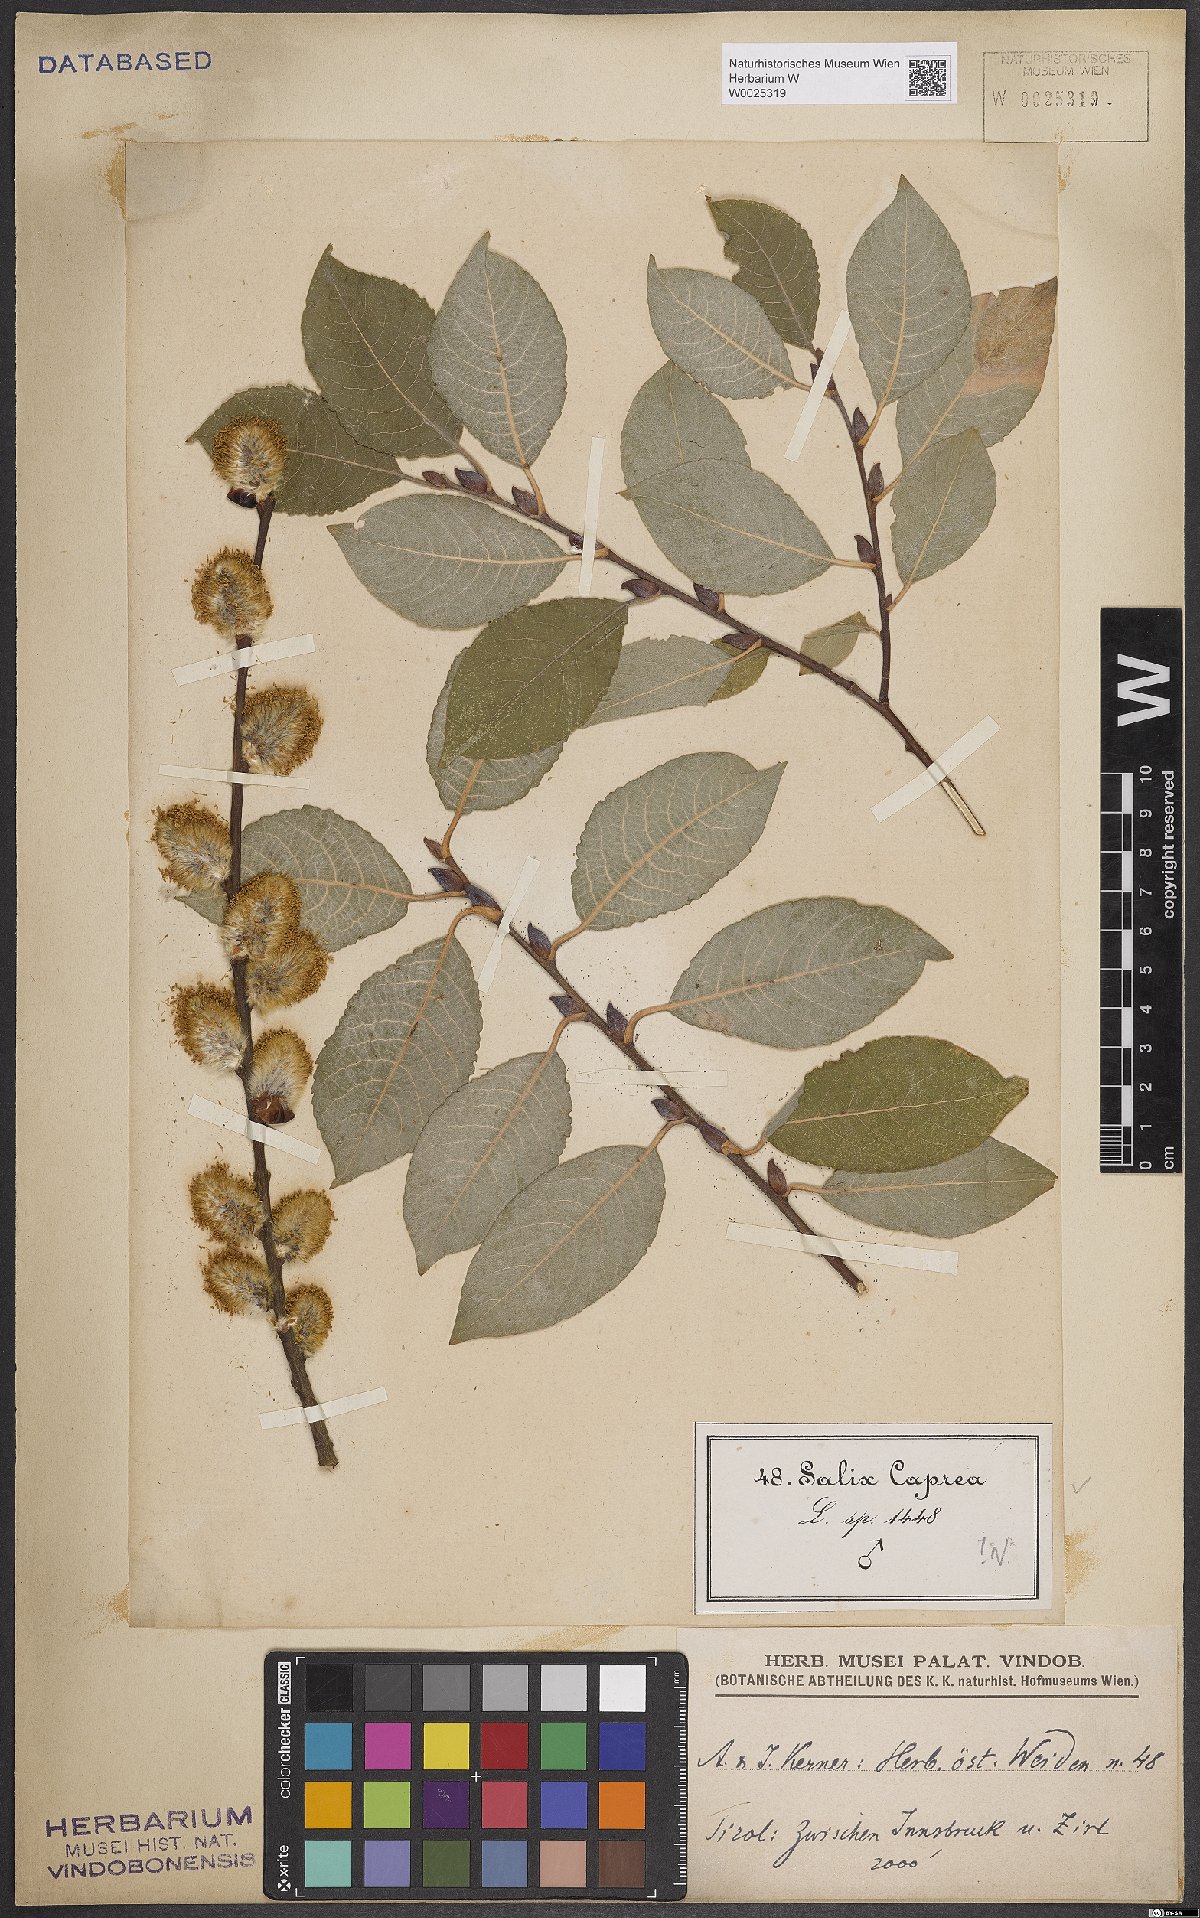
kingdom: Plantae
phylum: Tracheophyta
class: Magnoliopsida
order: Malpighiales
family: Salicaceae
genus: Salix
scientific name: Salix caprea
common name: Goat willow
